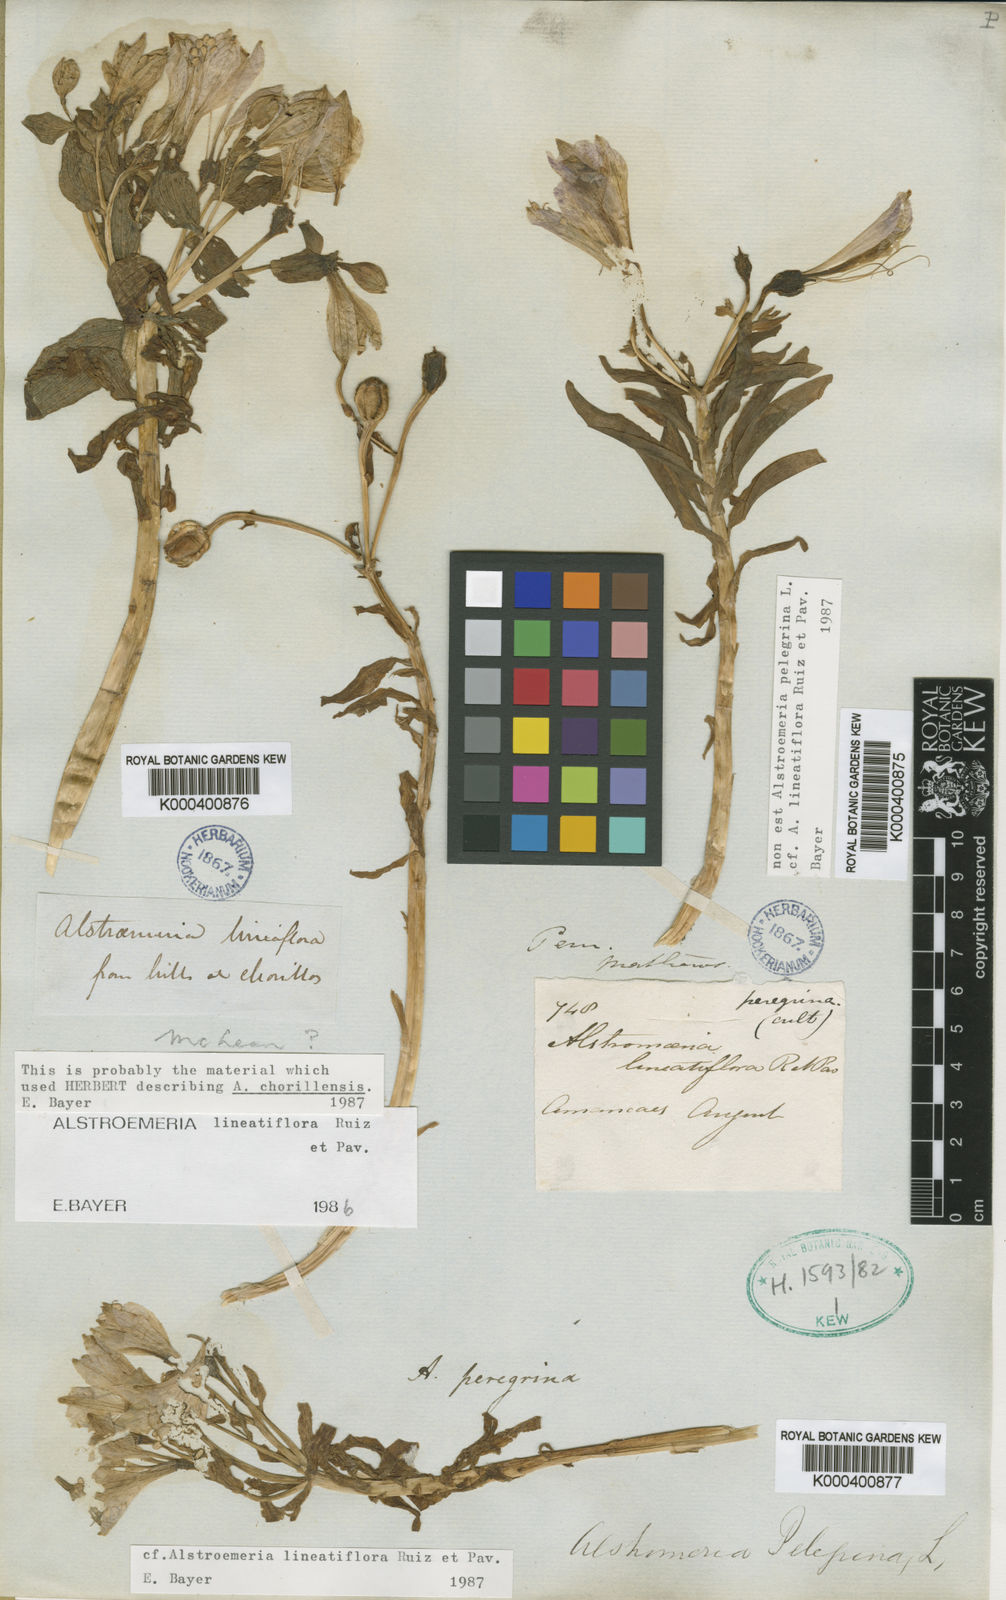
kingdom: Plantae
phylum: Tracheophyta
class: Liliopsida
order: Liliales
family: Alstroemeriaceae
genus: Alstroemeria
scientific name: Alstroemeria chorillensis
